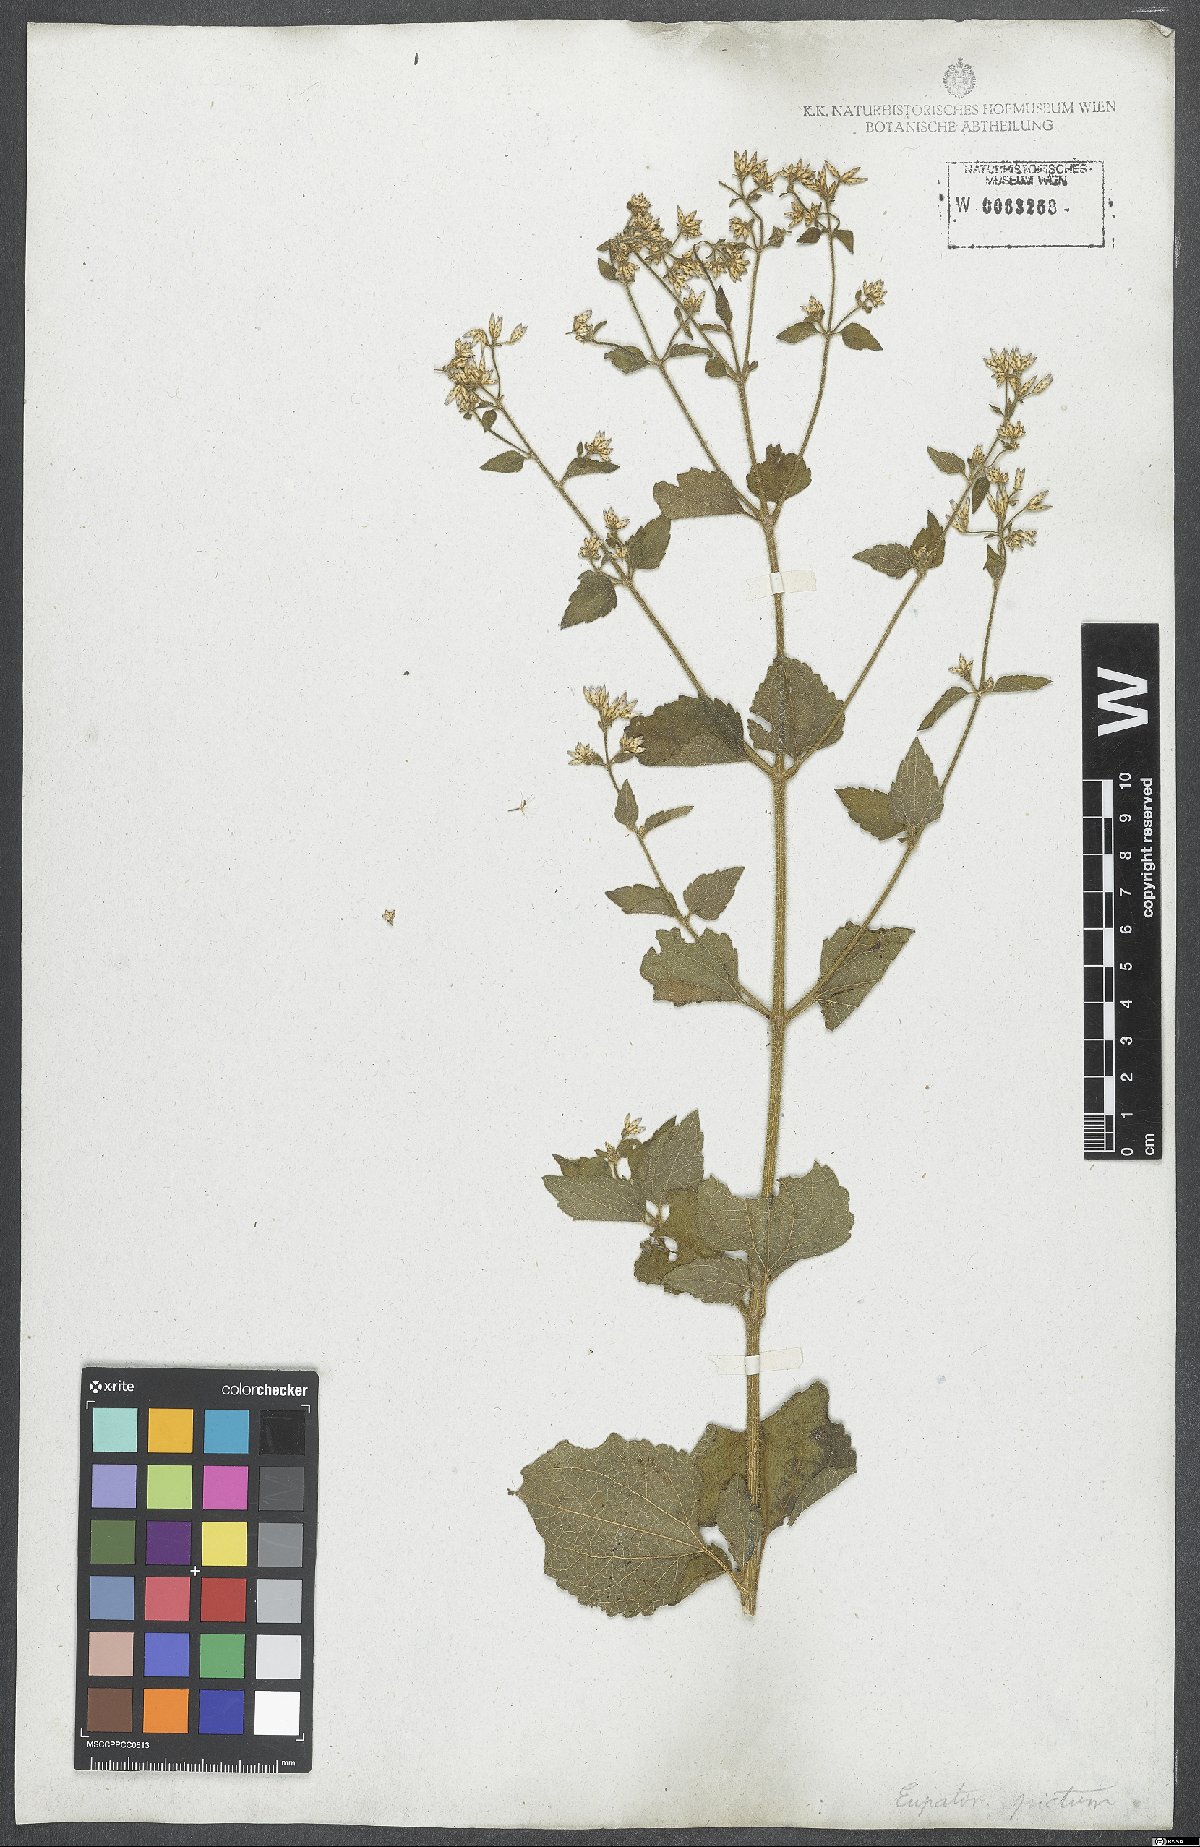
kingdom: Plantae
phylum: Tracheophyta
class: Magnoliopsida
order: Asterales
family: Asteraceae
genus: Chromolaena
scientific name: Chromolaena picta
